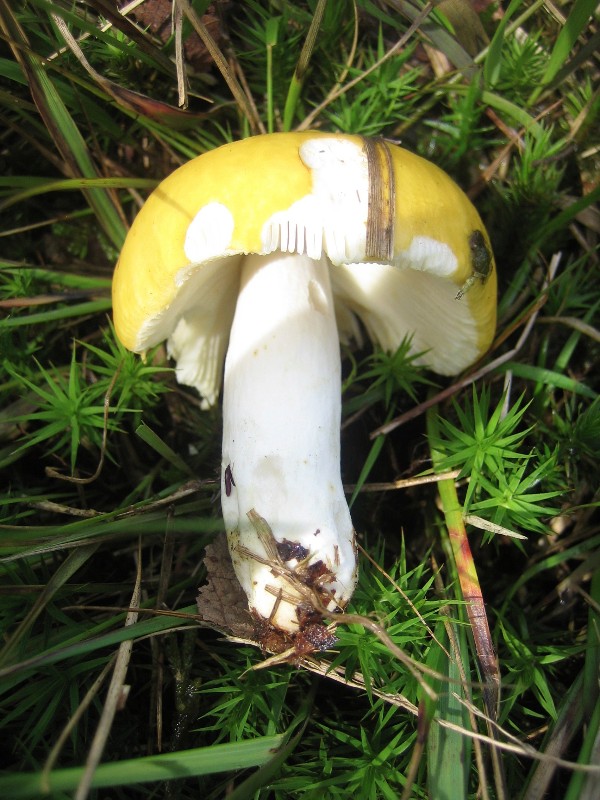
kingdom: Fungi
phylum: Basidiomycota
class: Agaricomycetes
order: Russulales
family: Russulaceae
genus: Russula
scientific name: Russula claroflava
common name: birke-skørhat
